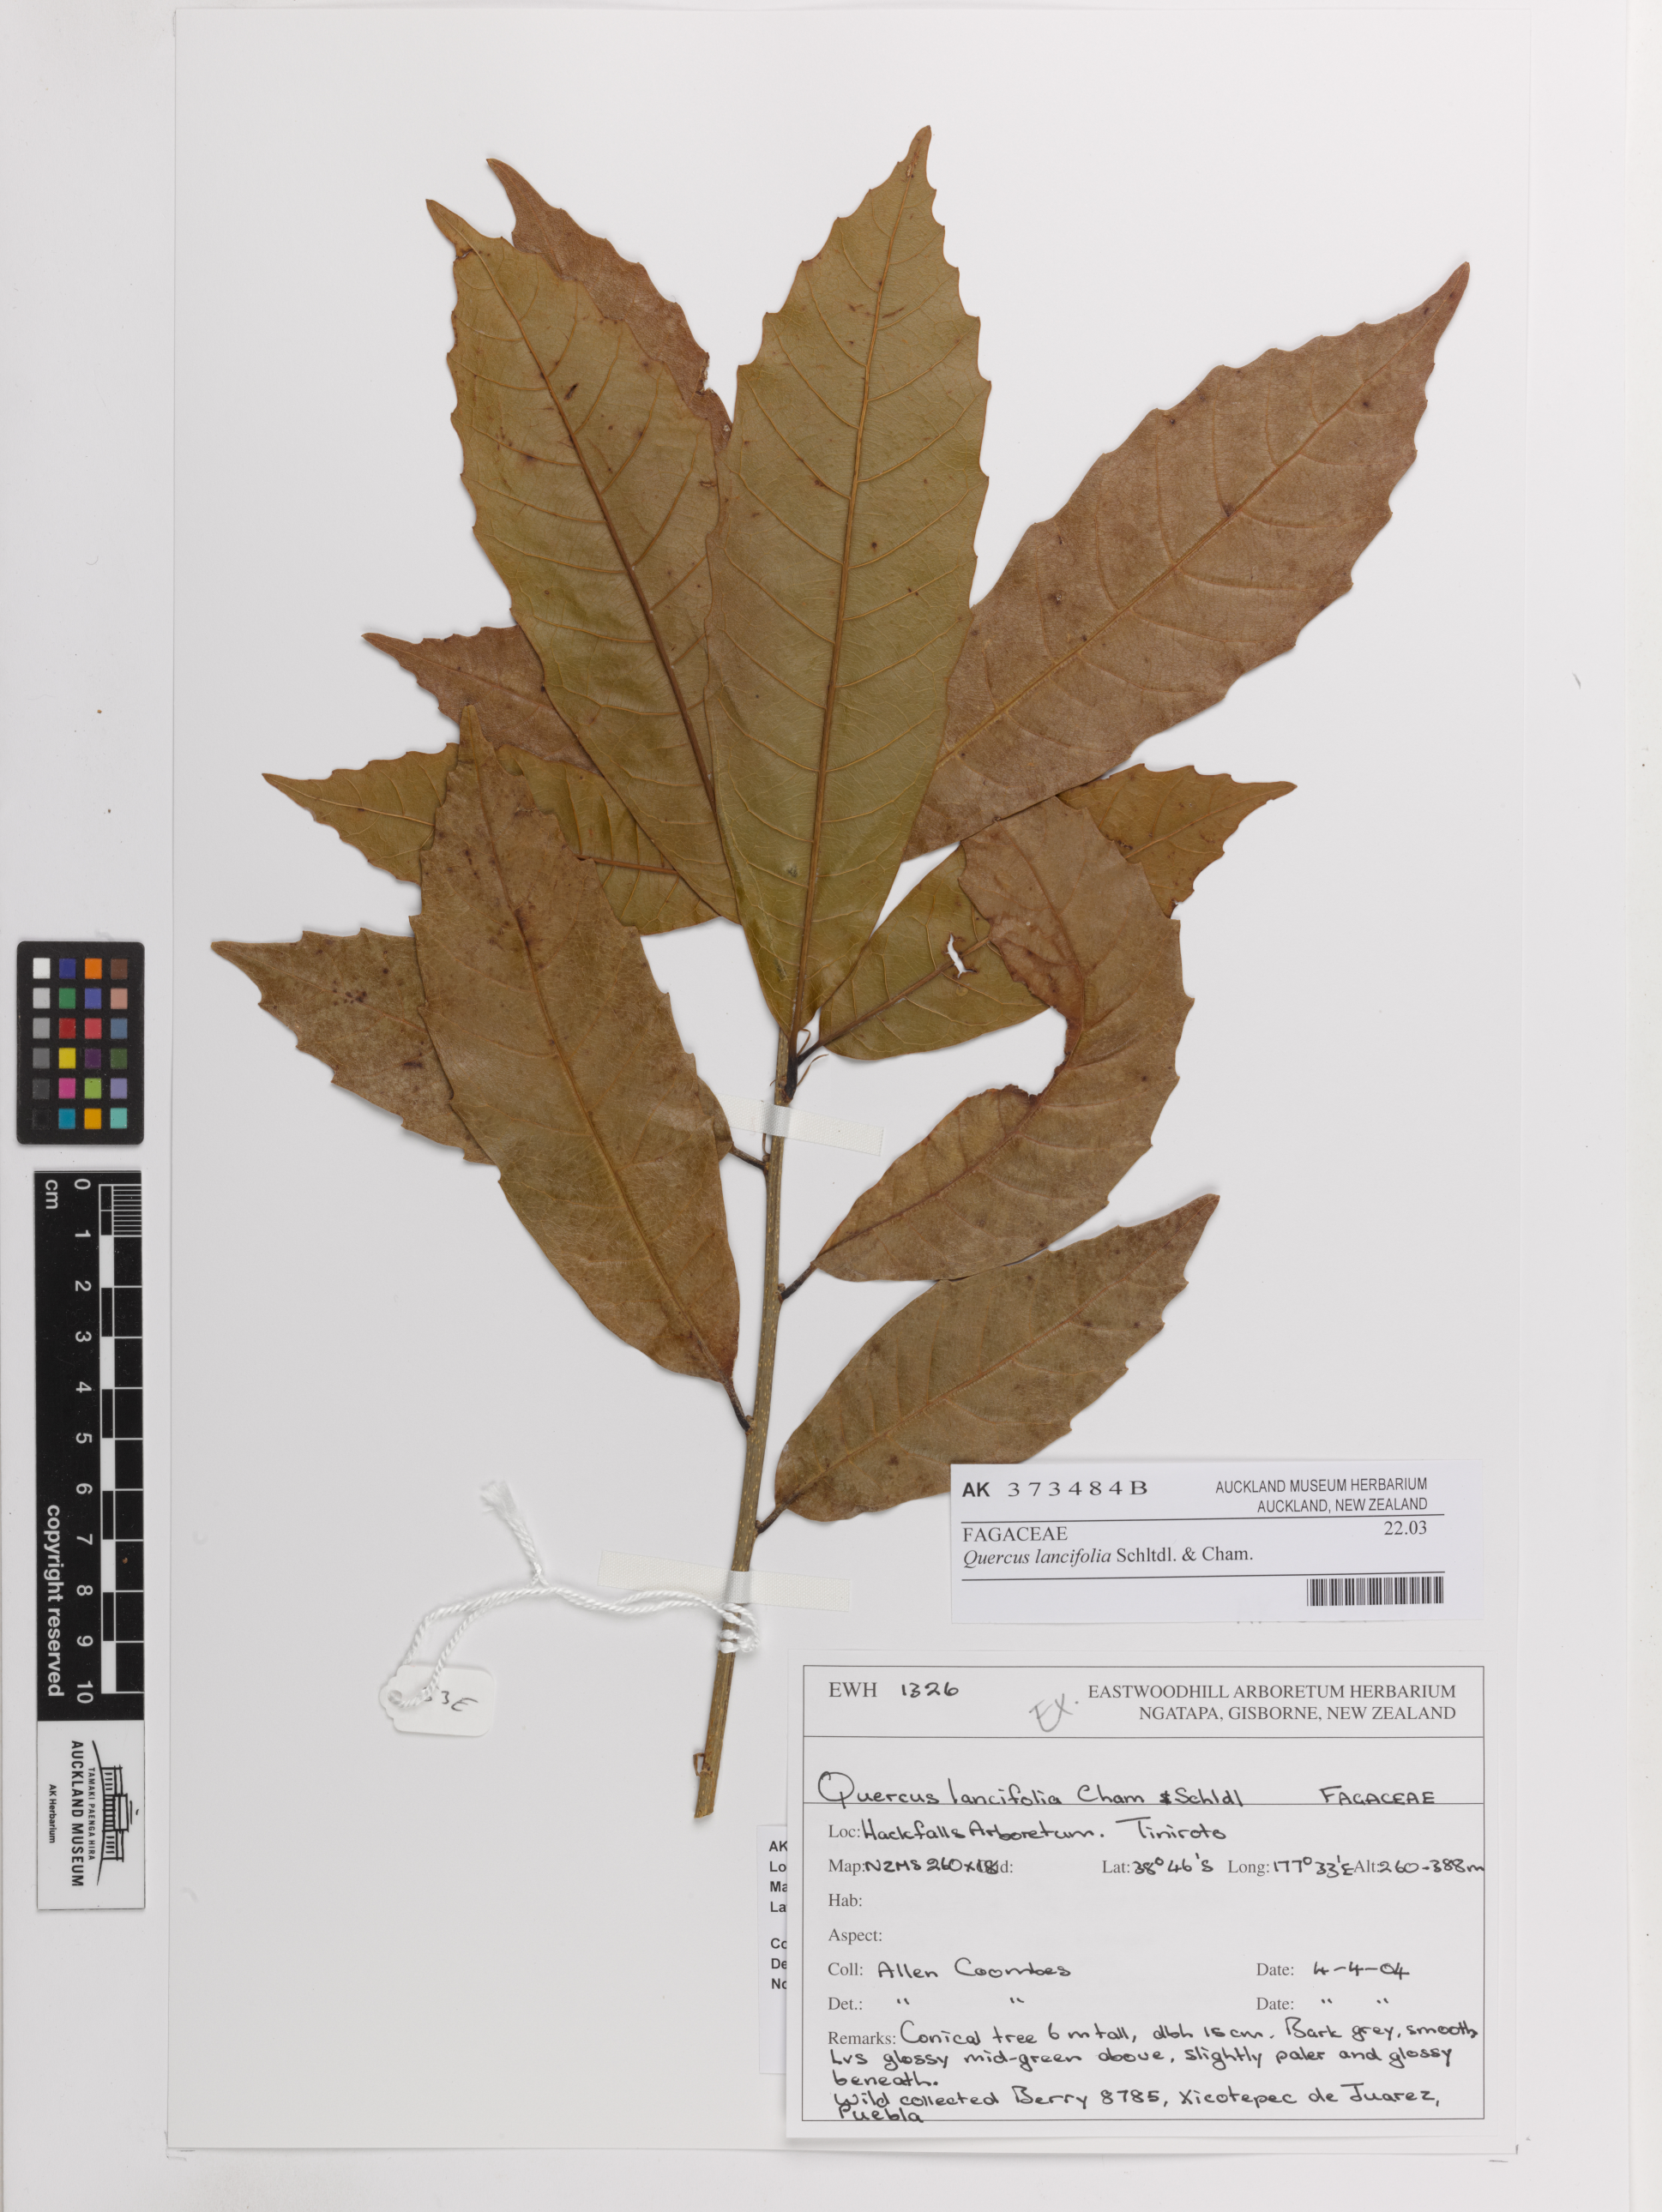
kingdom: Plantae
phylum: Tracheophyta
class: Magnoliopsida
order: Fagales
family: Fagaceae
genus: Quercus
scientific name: Quercus lancifolia
